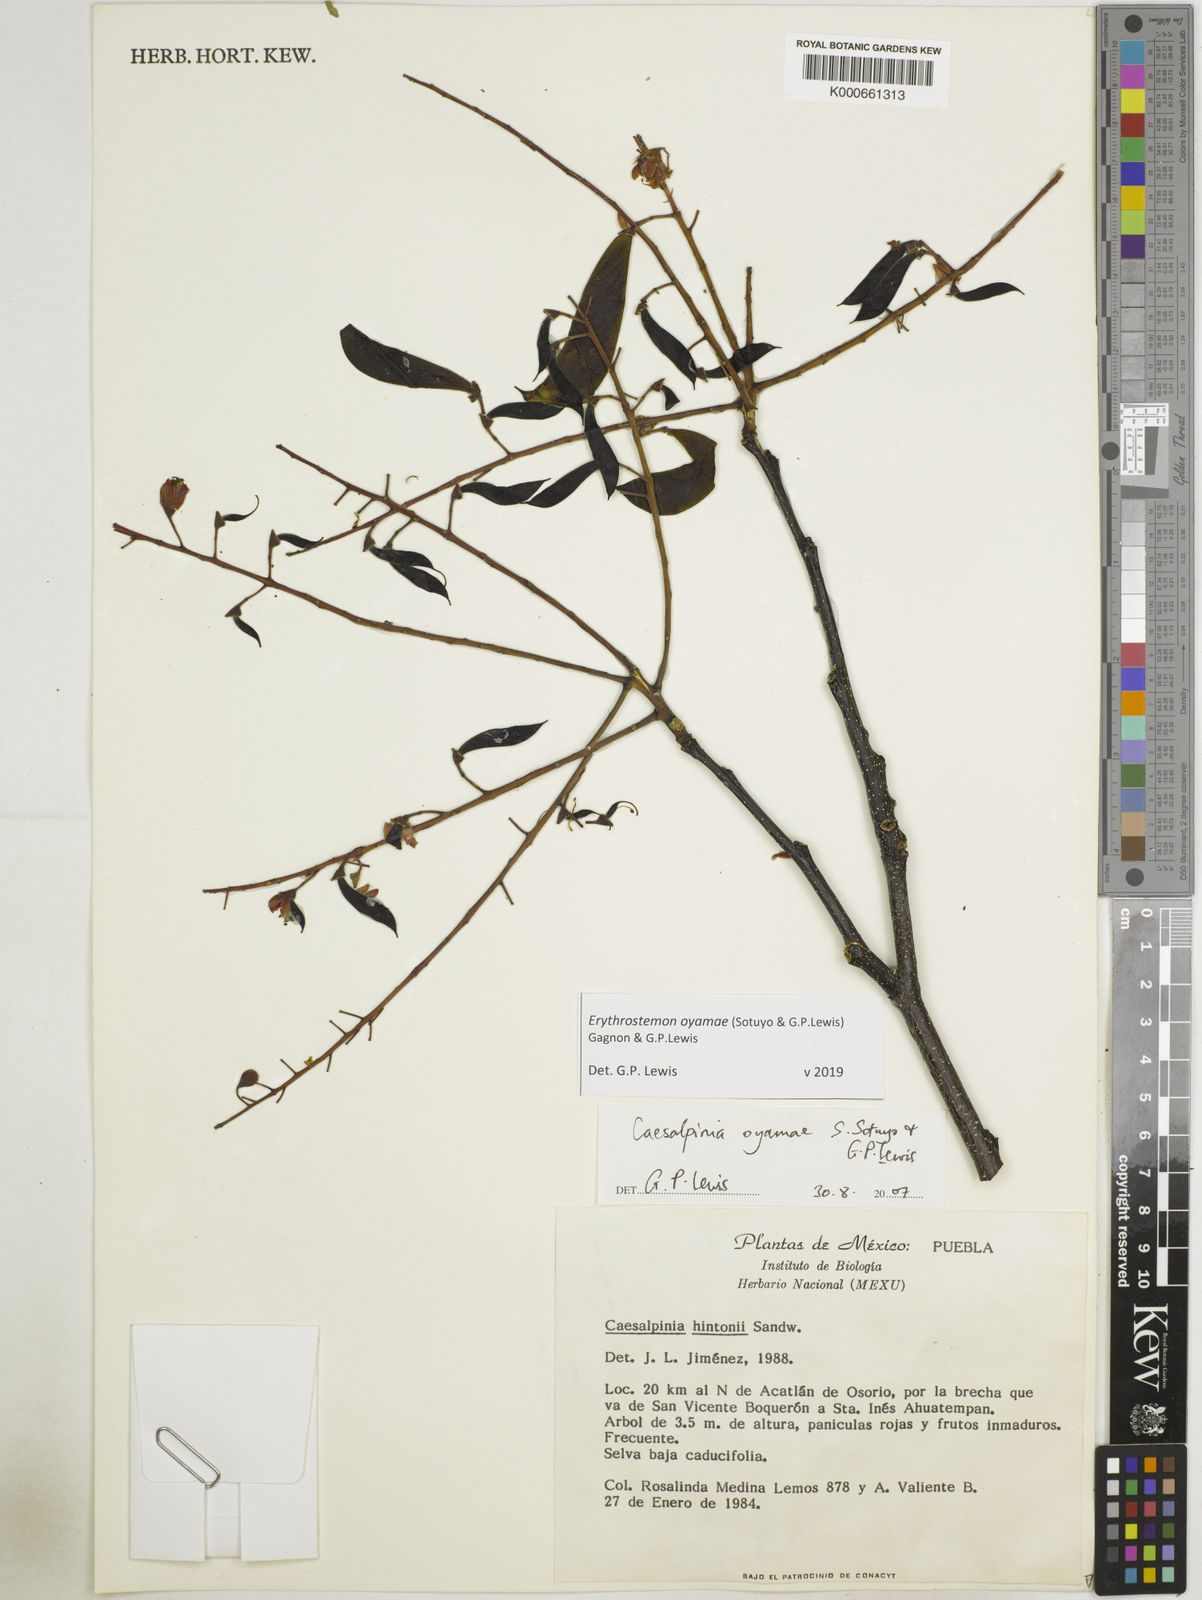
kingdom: Plantae
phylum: Tracheophyta
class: Magnoliopsida
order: Fabales
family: Fabaceae
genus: Erythrostemon
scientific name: Erythrostemon oyamae
